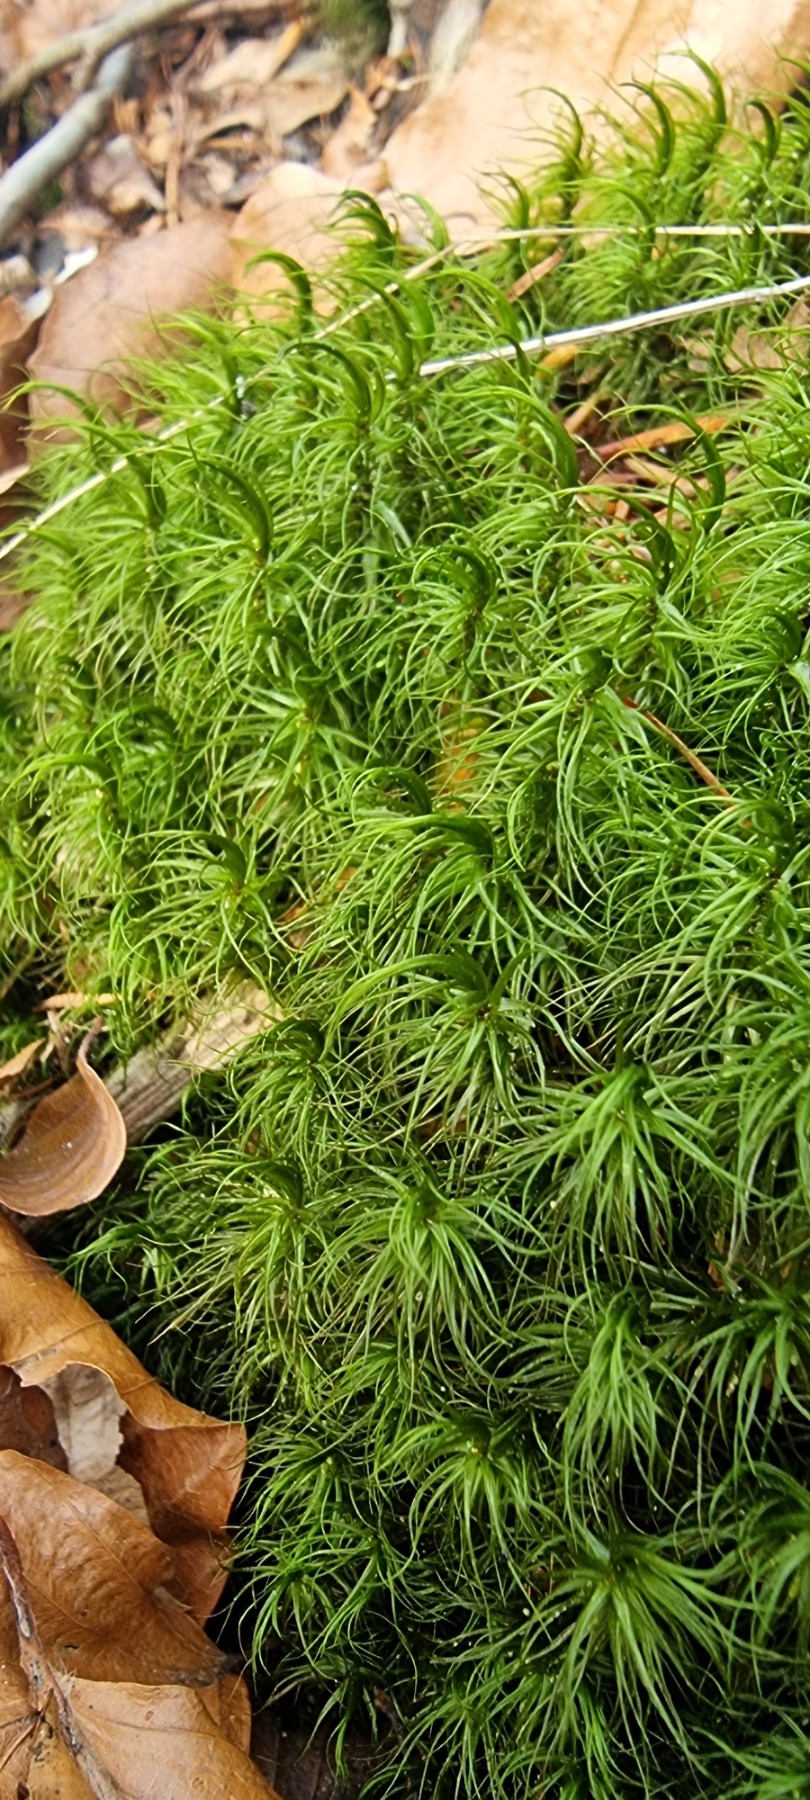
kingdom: Plantae
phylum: Bryophyta
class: Bryopsida
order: Dicranales
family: Dicranaceae
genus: Dicranum
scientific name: Dicranum majus
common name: Stor kløvtand
